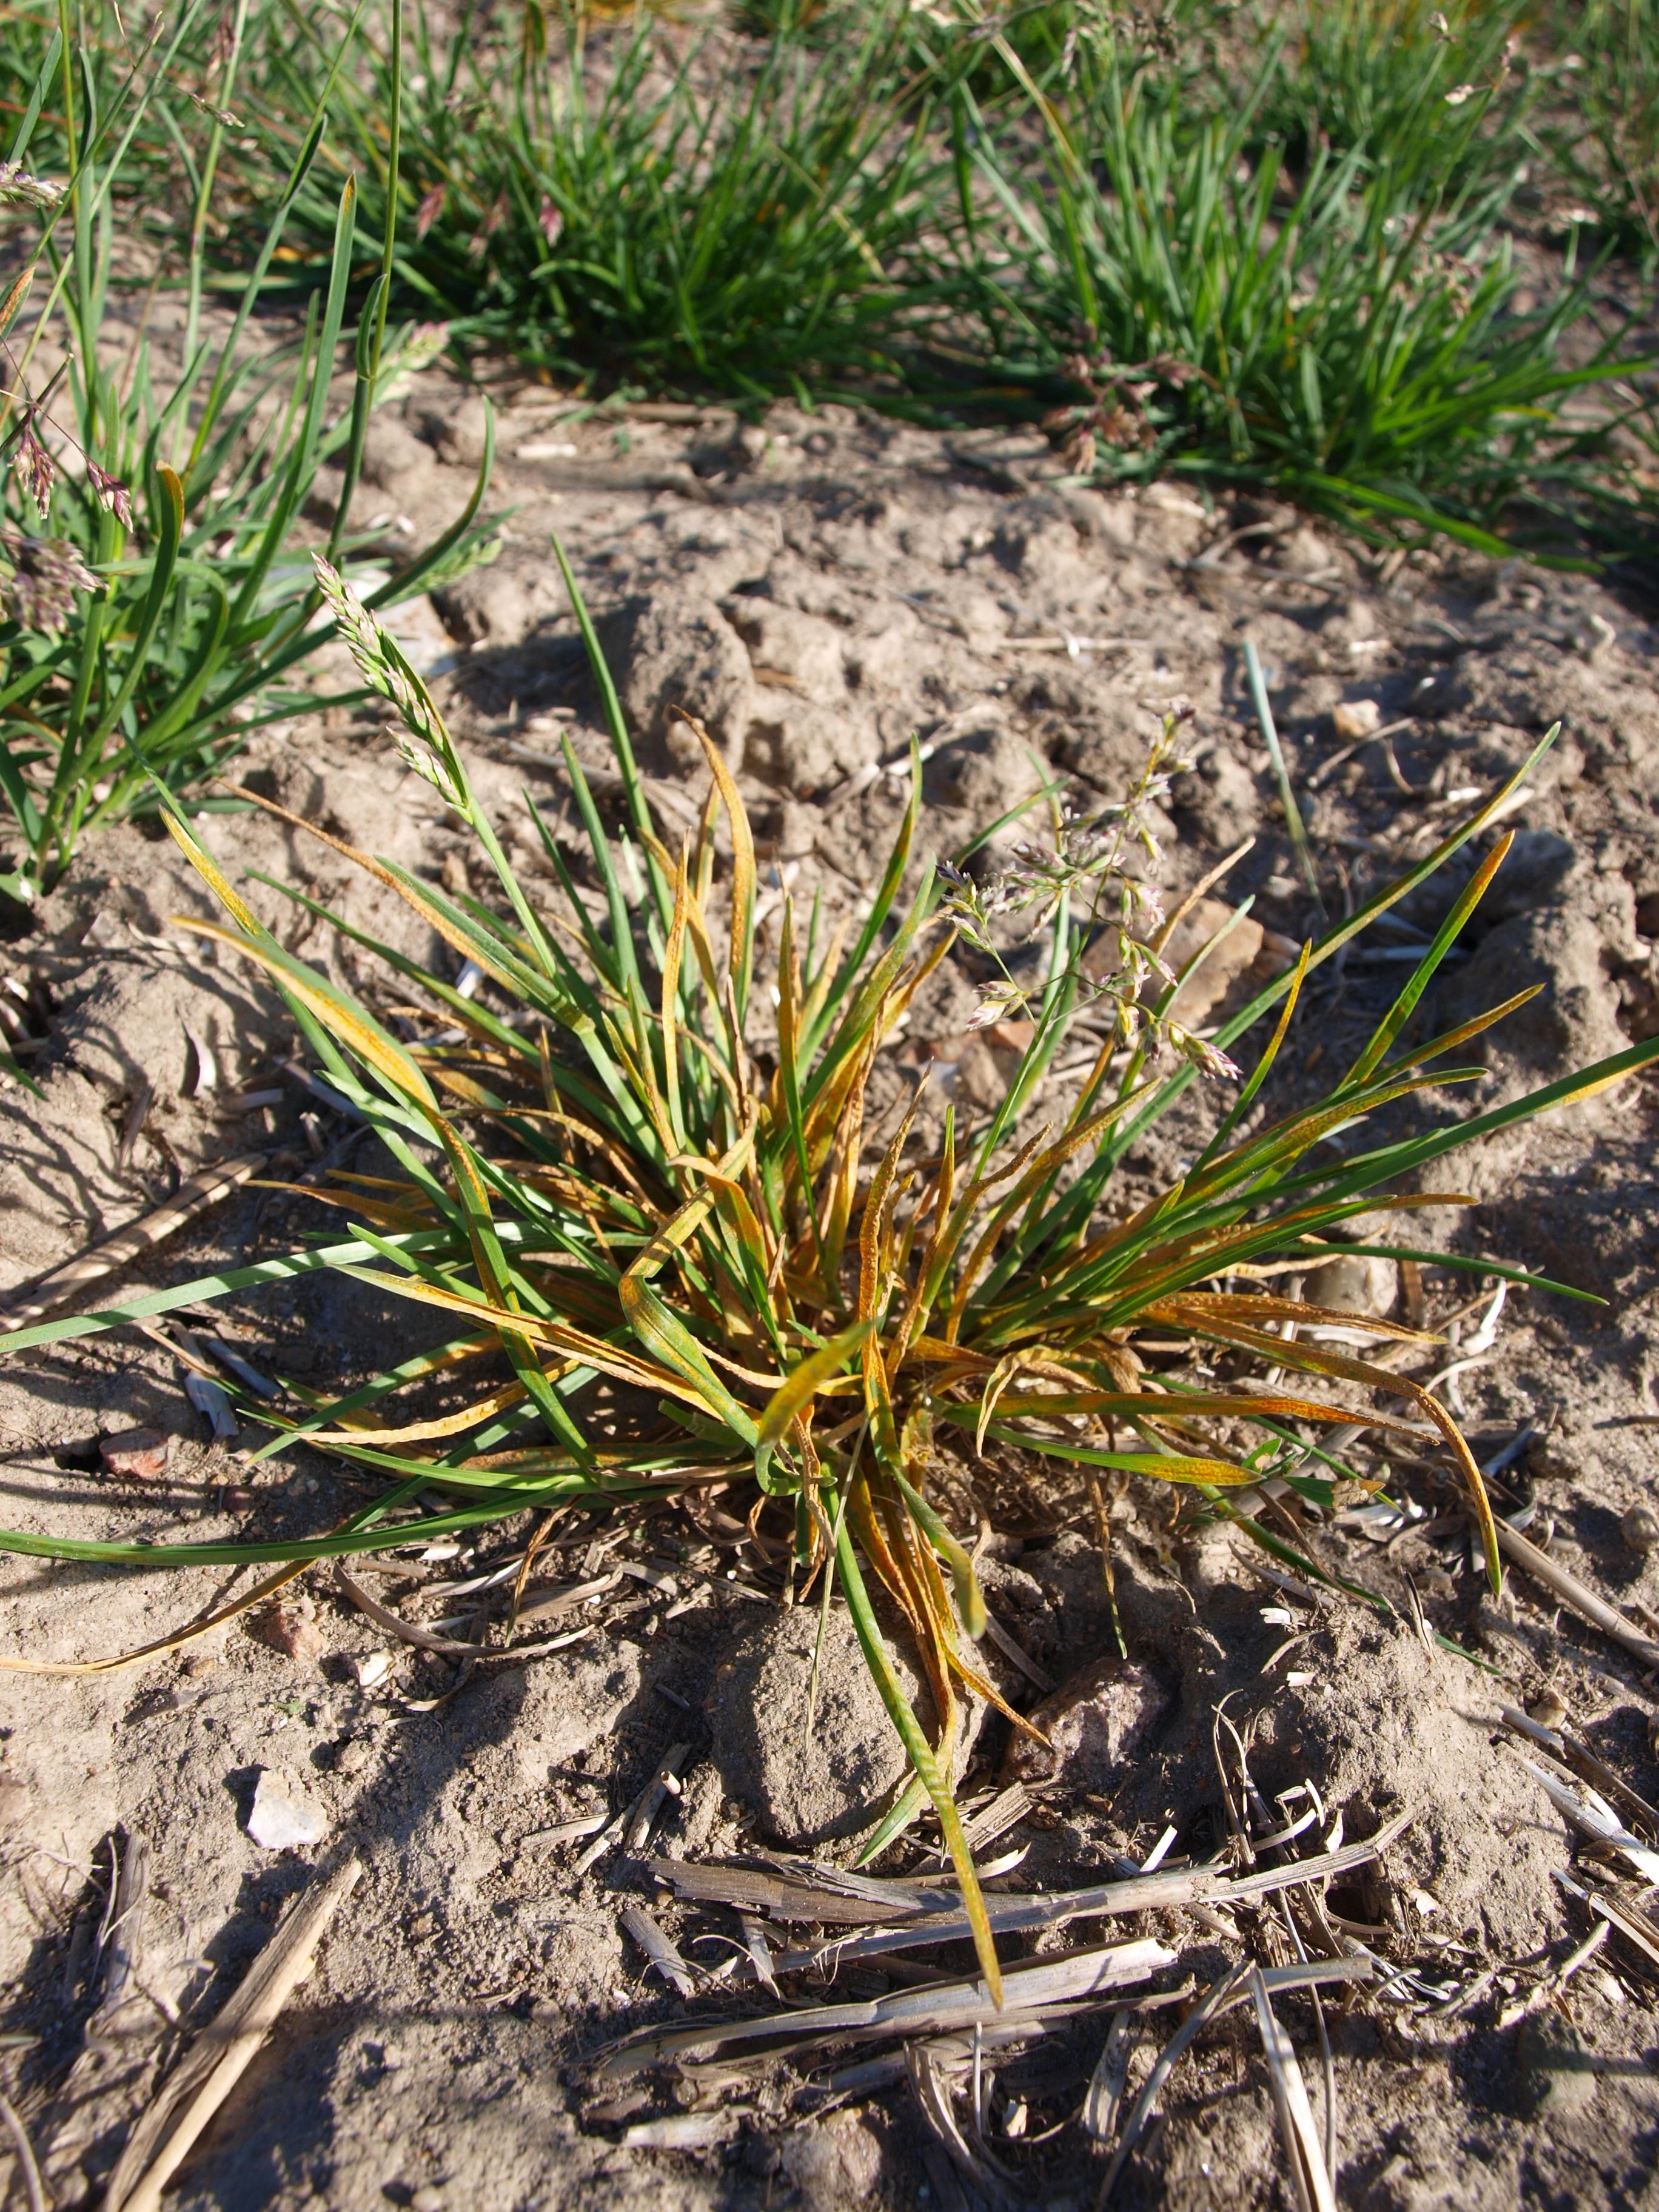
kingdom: Plantae
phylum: Tracheophyta
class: Liliopsida
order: Poales
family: Poaceae
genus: Poa
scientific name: Poa pratensis
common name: Kentucky bluegrass
